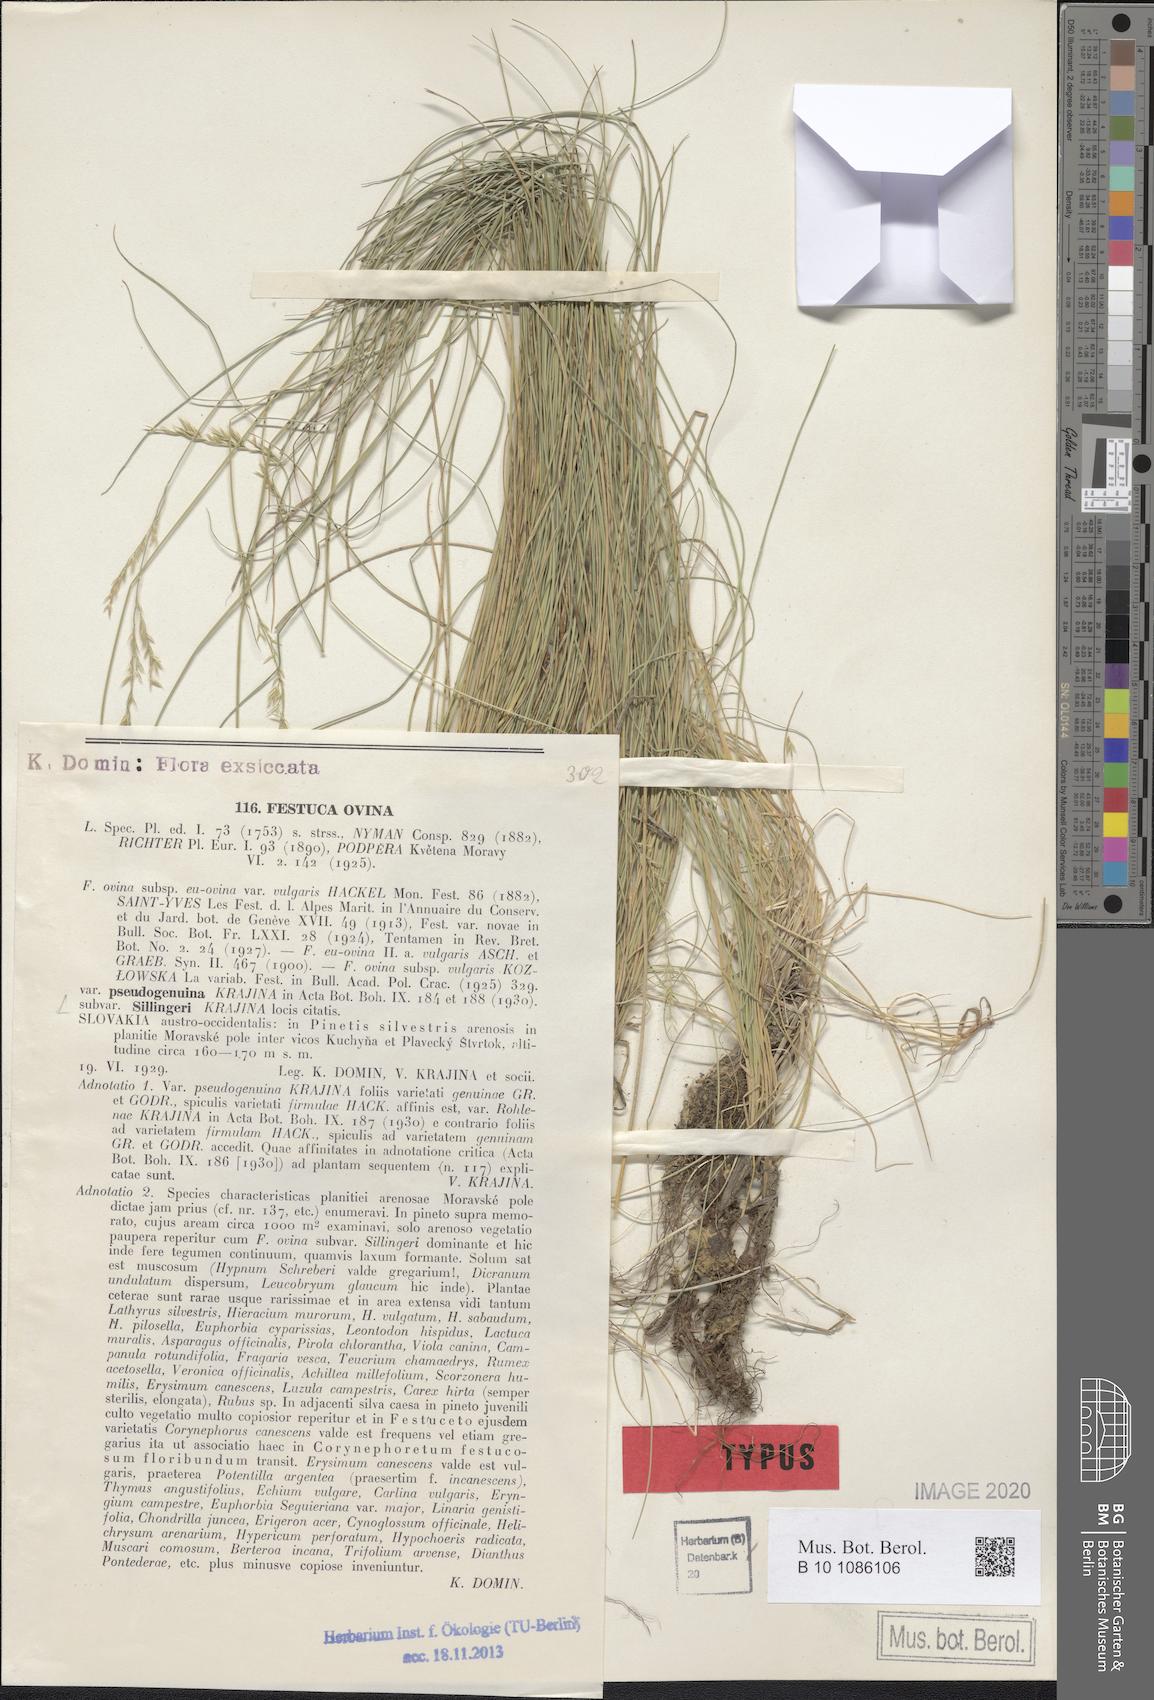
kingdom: Plantae
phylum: Tracheophyta
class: Liliopsida
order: Poales
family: Poaceae
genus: Festuca
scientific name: Festuca ovina
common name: Sheep fescue
